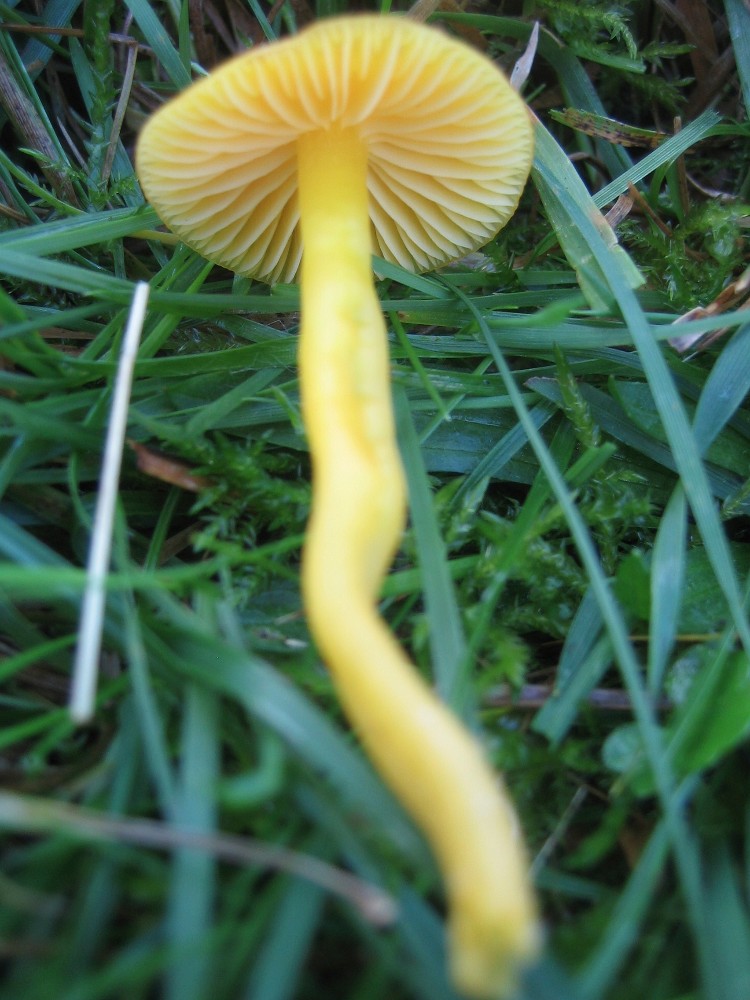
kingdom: Fungi
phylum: Basidiomycota
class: Agaricomycetes
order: Agaricales
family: Hygrophoraceae
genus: Hygrocybe
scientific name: Hygrocybe chlorophana
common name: gul vokshat
